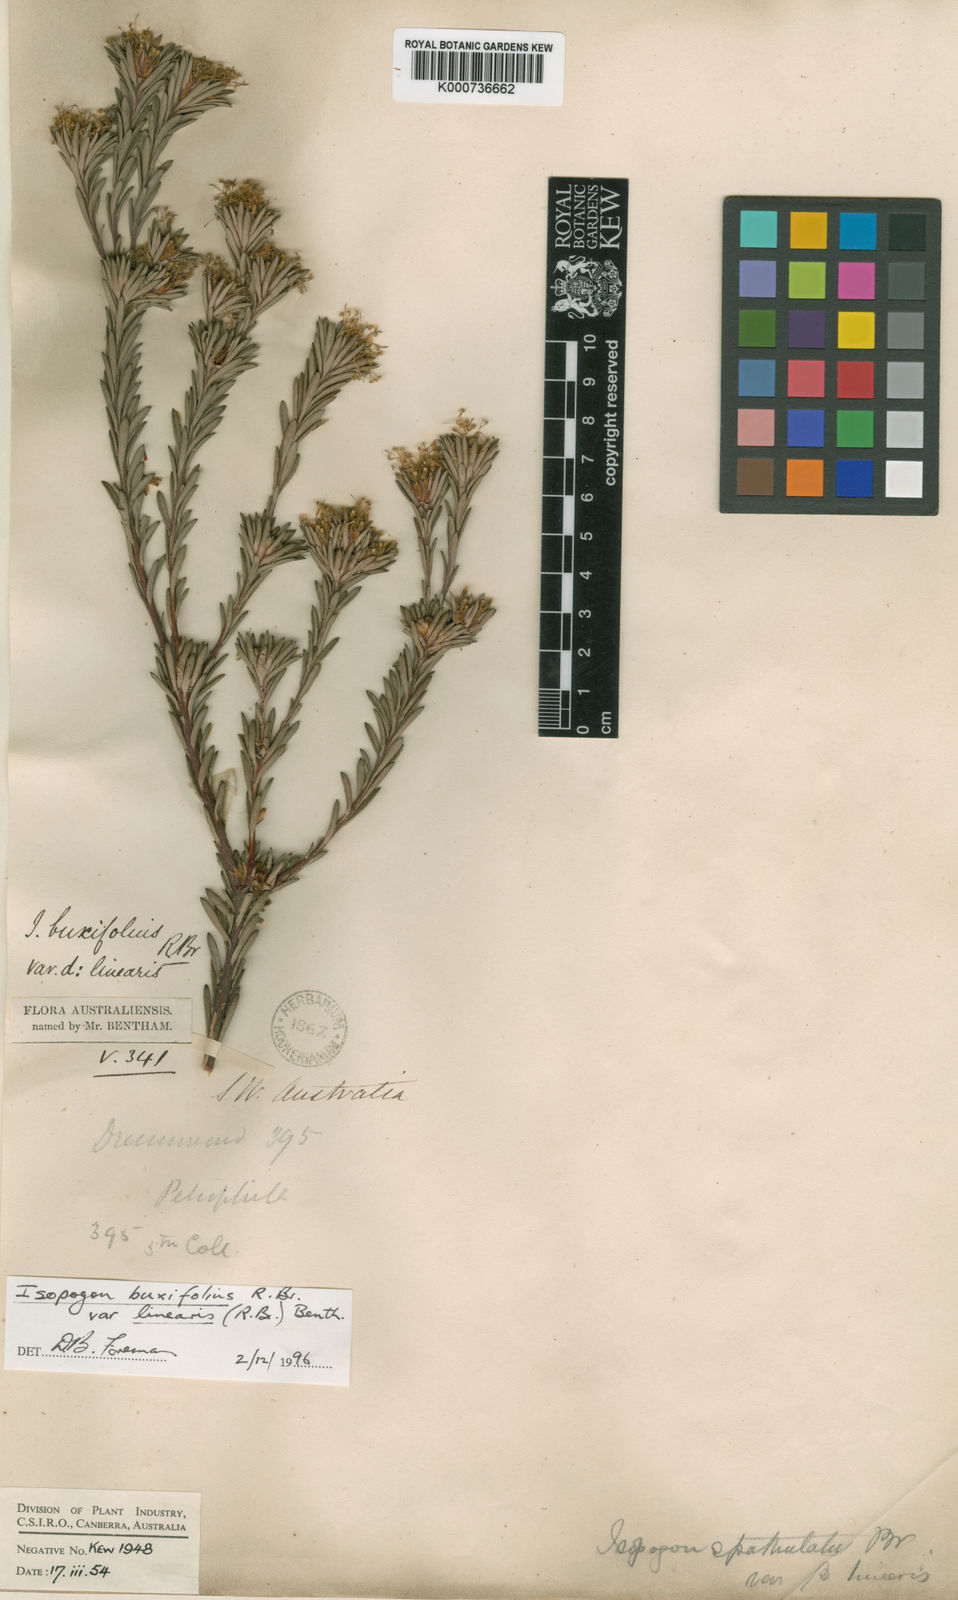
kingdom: Plantae
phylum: Tracheophyta
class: Magnoliopsida
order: Proteales
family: Proteaceae
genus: Isopogon
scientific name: Isopogon buxifolius
